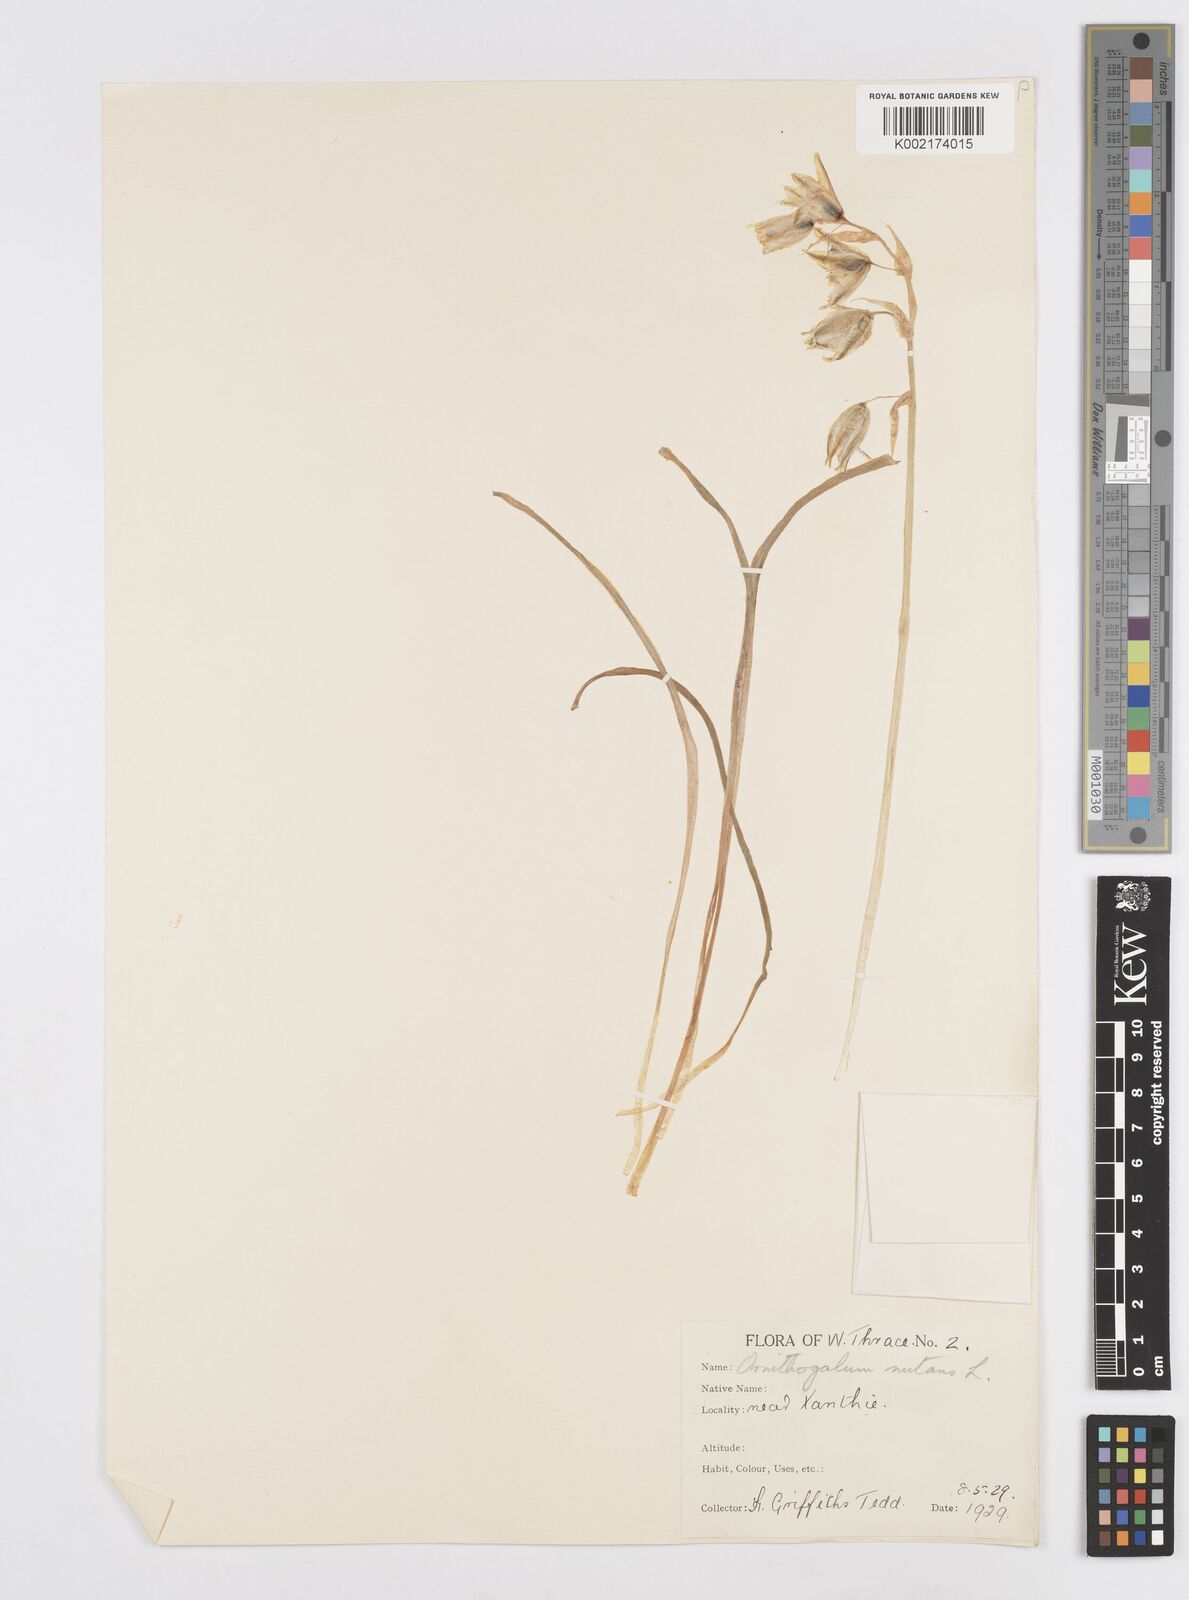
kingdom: Plantae
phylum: Tracheophyta
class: Liliopsida
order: Asparagales
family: Asparagaceae
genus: Ornithogalum
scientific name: Ornithogalum nutans
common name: Drooping star-of-bethlehem
